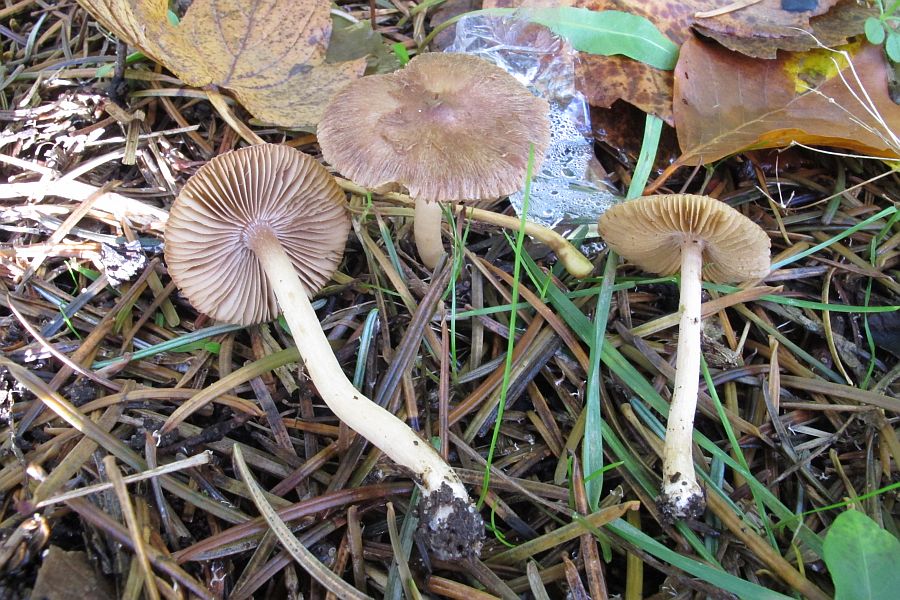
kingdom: Fungi
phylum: Basidiomycota
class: Agaricomycetes
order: Agaricales
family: Inocybaceae
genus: Inocybe
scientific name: Inocybe
